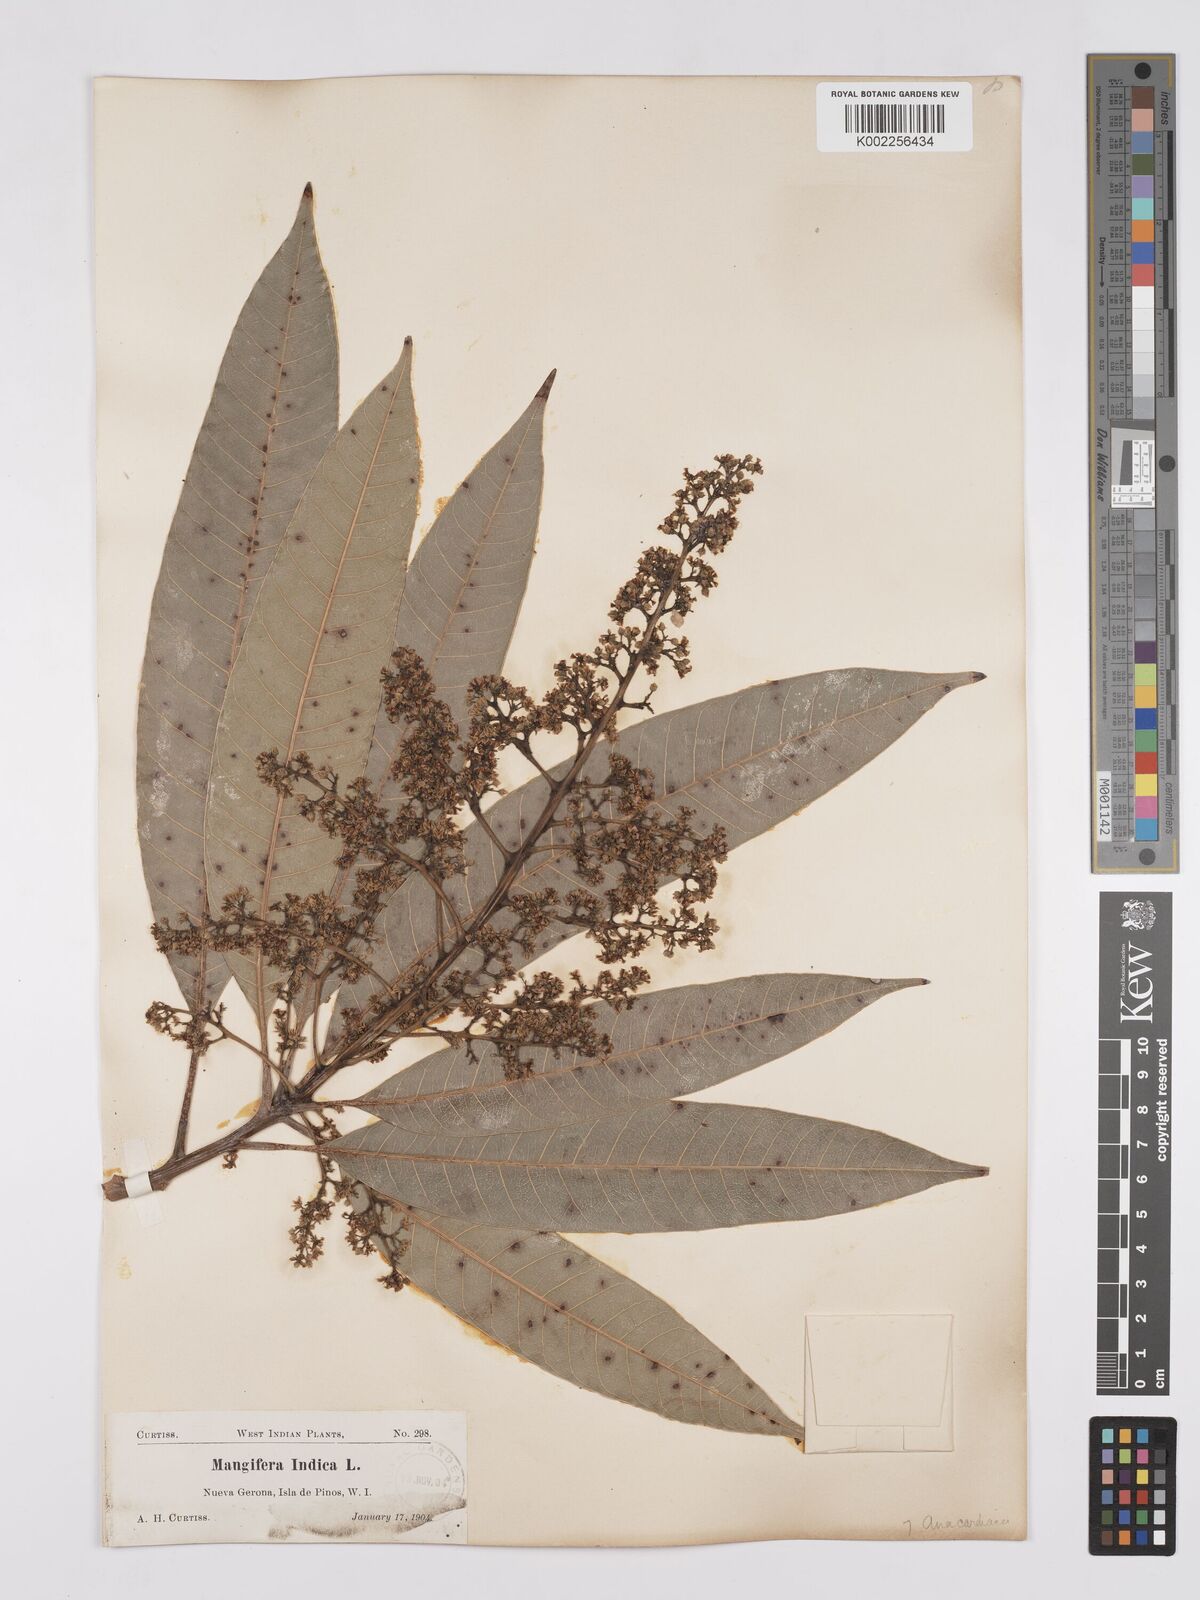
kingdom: Plantae
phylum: Tracheophyta
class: Magnoliopsida
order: Sapindales
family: Anacardiaceae
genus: Mangifera
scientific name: Mangifera indica
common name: Mango
